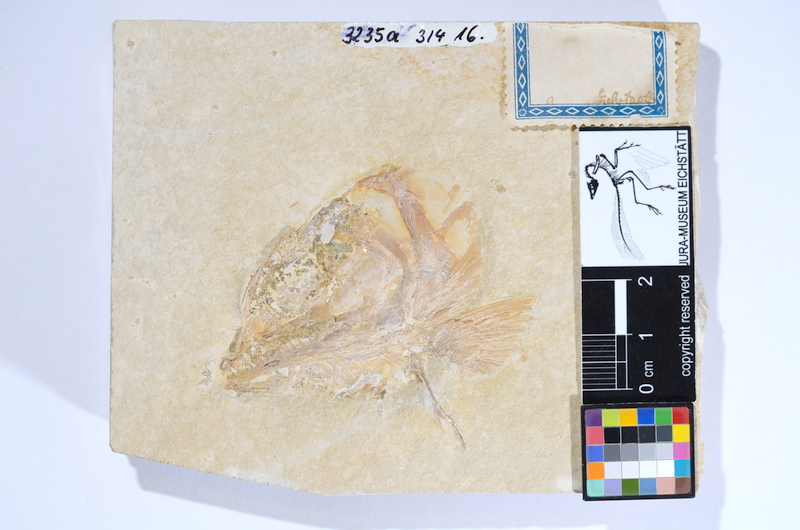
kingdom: Animalia
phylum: Chordata
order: Amiiformes
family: Caturidae
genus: Caturus
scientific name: Caturus
